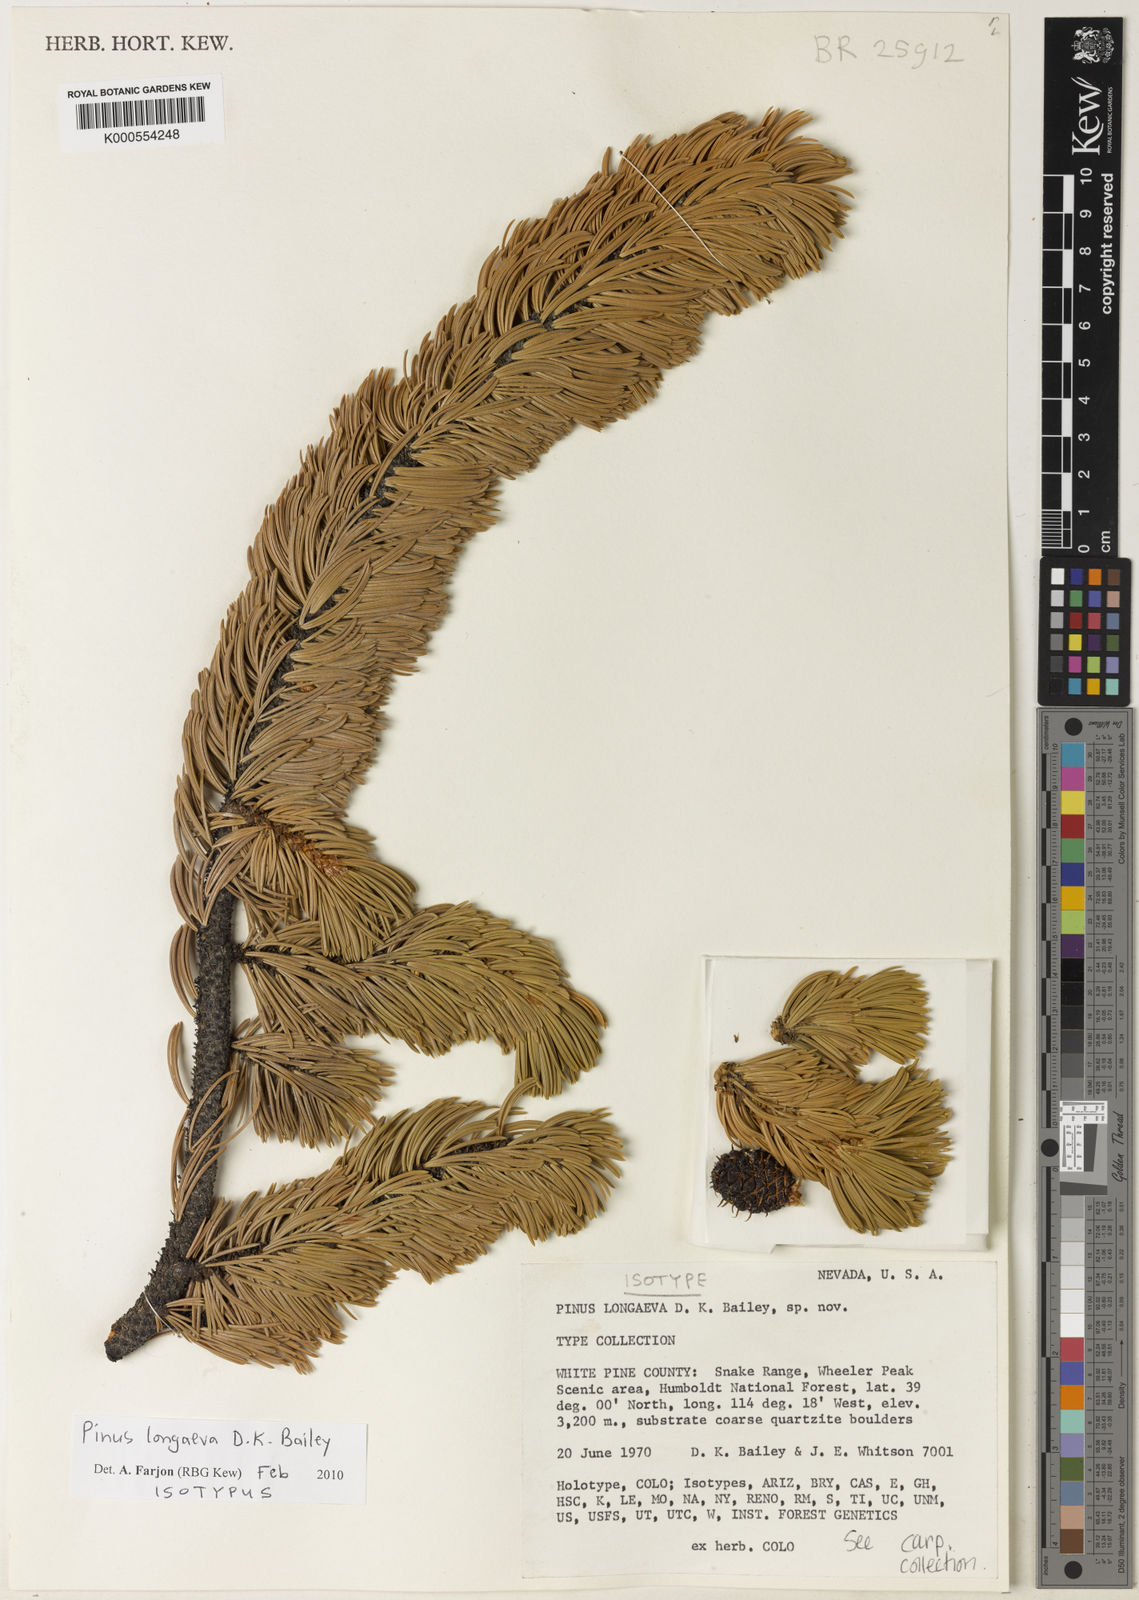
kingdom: Plantae
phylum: Tracheophyta
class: Pinopsida
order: Pinales
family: Pinaceae
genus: Pinus
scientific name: Pinus longaeva
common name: Intermountain bristlecone pine
